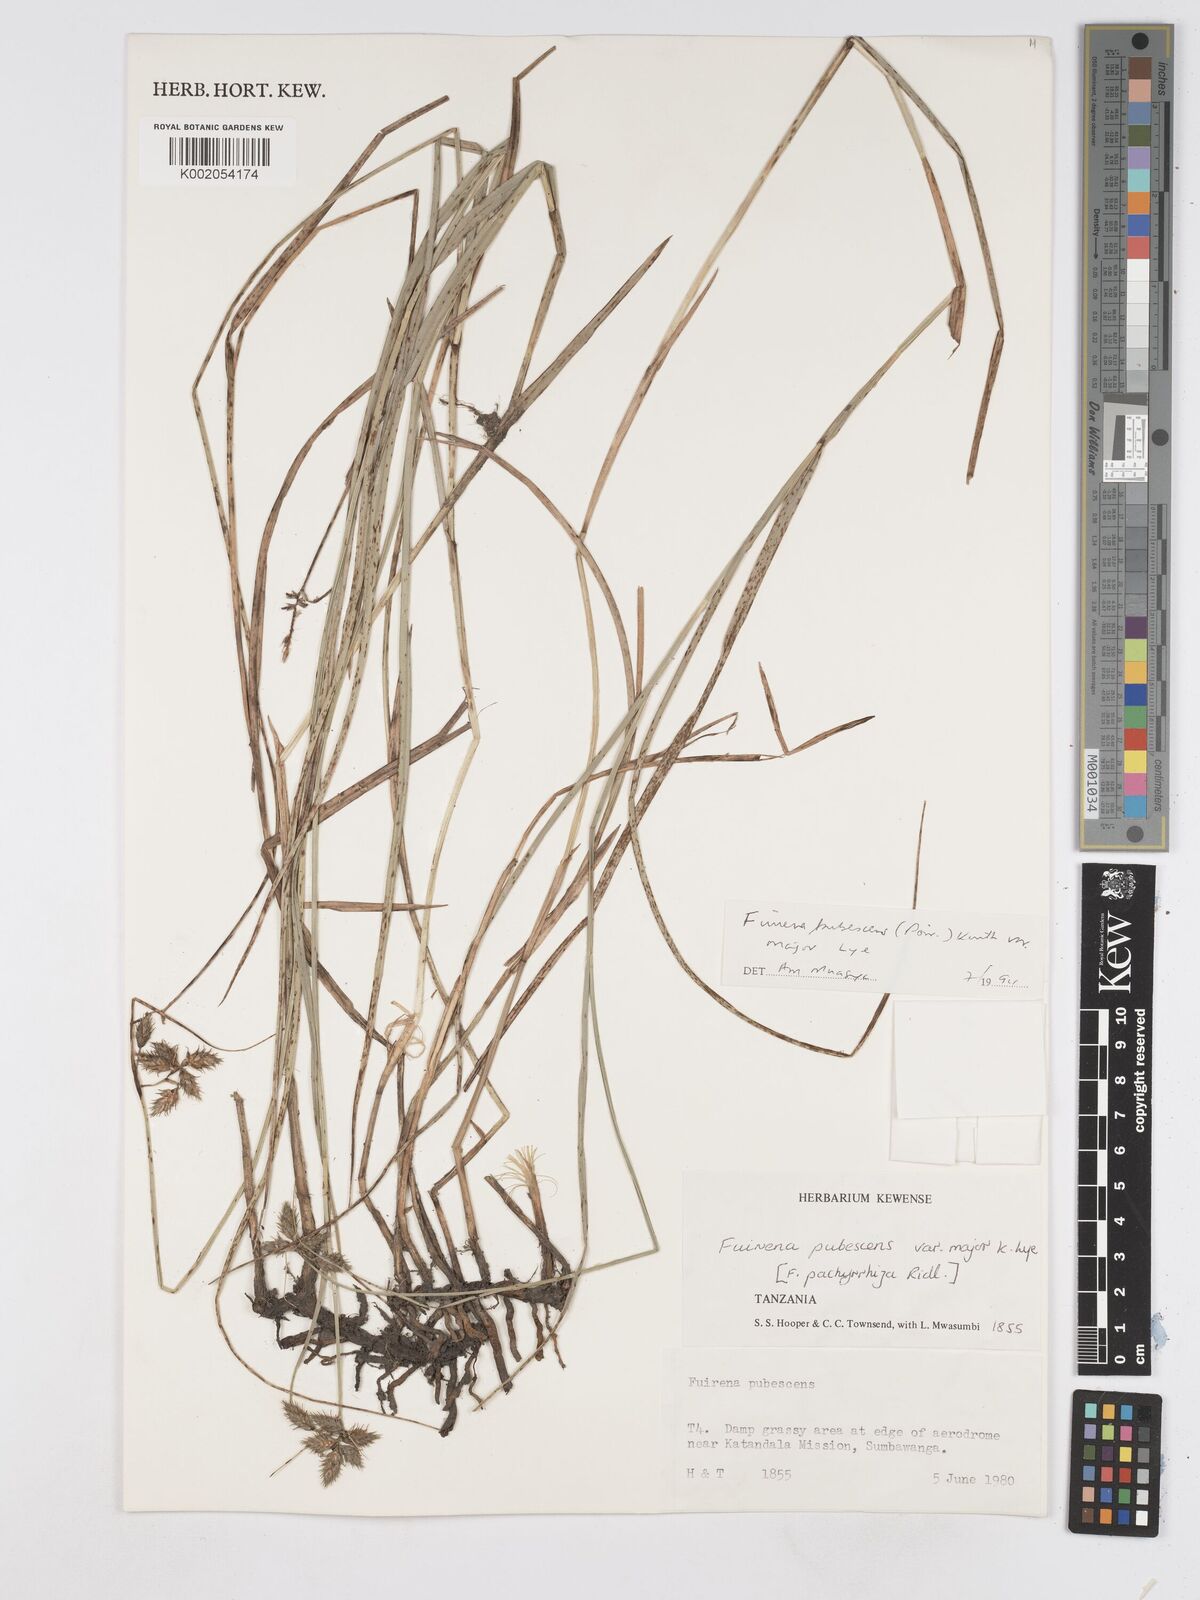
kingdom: Plantae
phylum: Tracheophyta
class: Liliopsida
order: Poales
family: Cyperaceae
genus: Fuirena
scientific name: Fuirena pachyrrhiza
